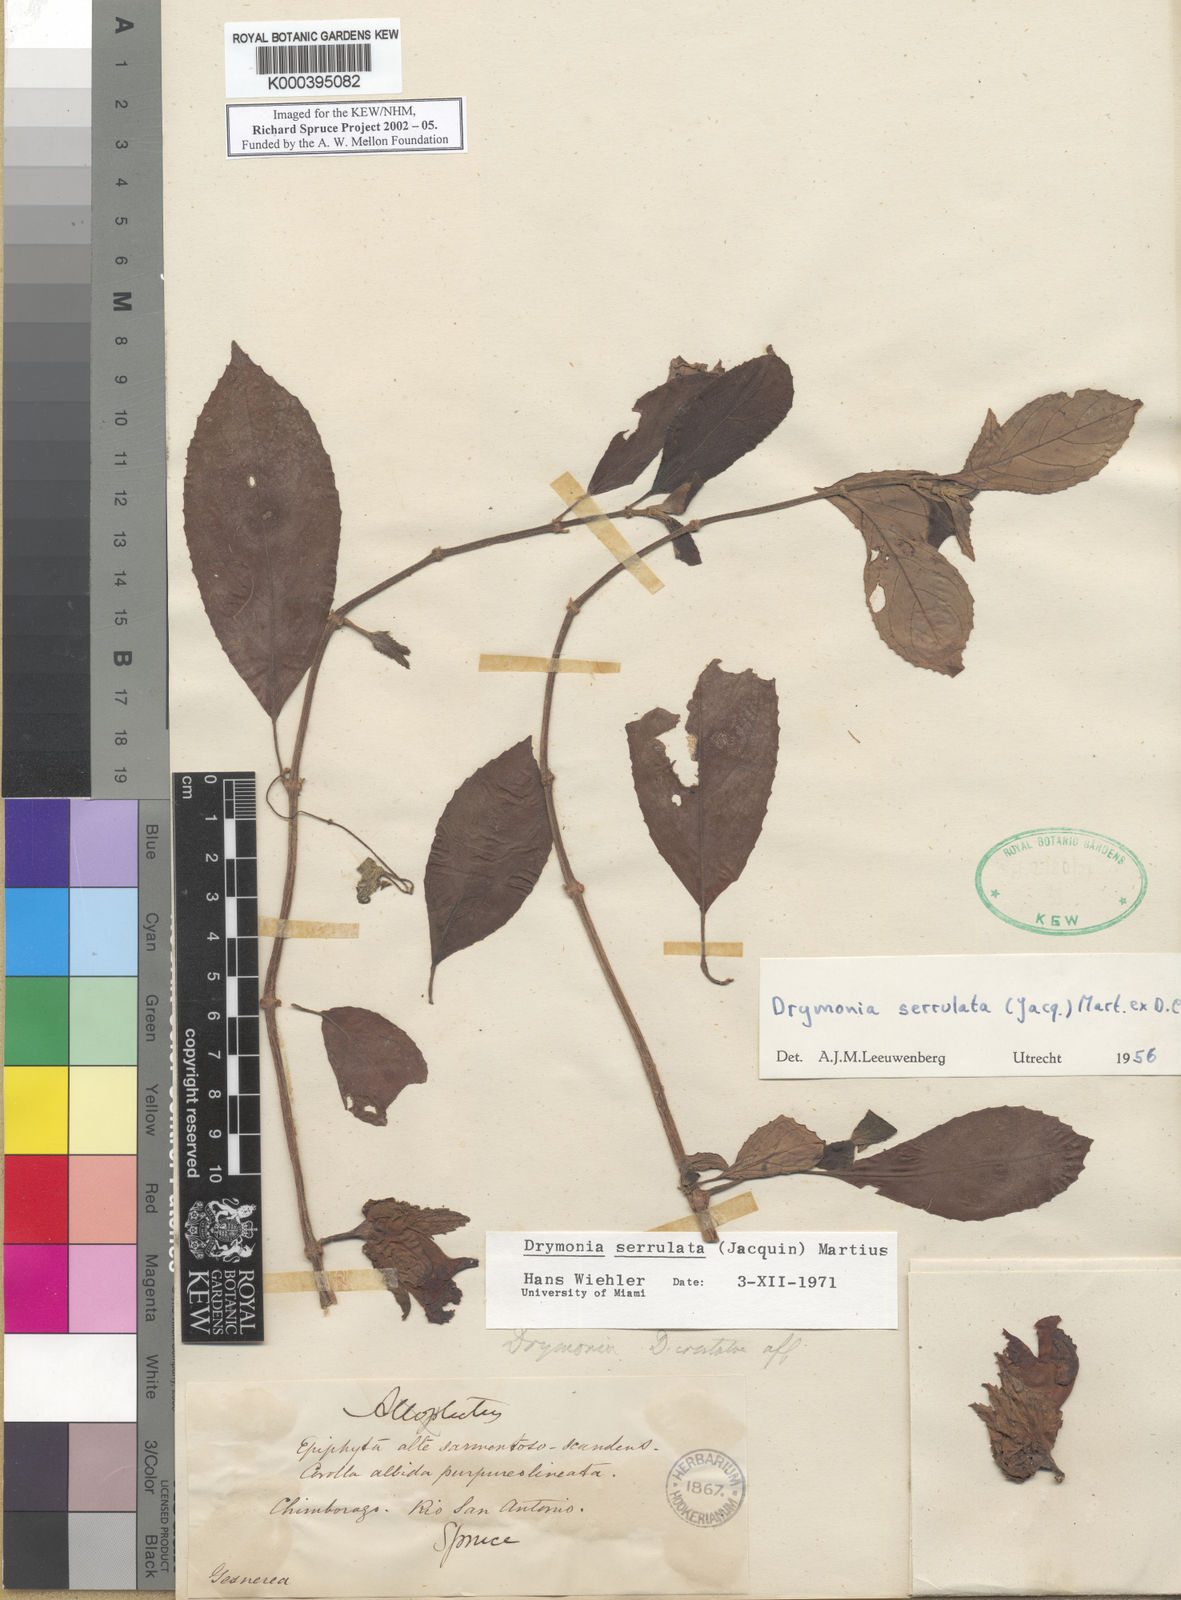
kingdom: Plantae
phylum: Tracheophyta
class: Magnoliopsida
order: Lamiales
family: Gesneriaceae
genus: Drymonia
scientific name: Drymonia serrulata
